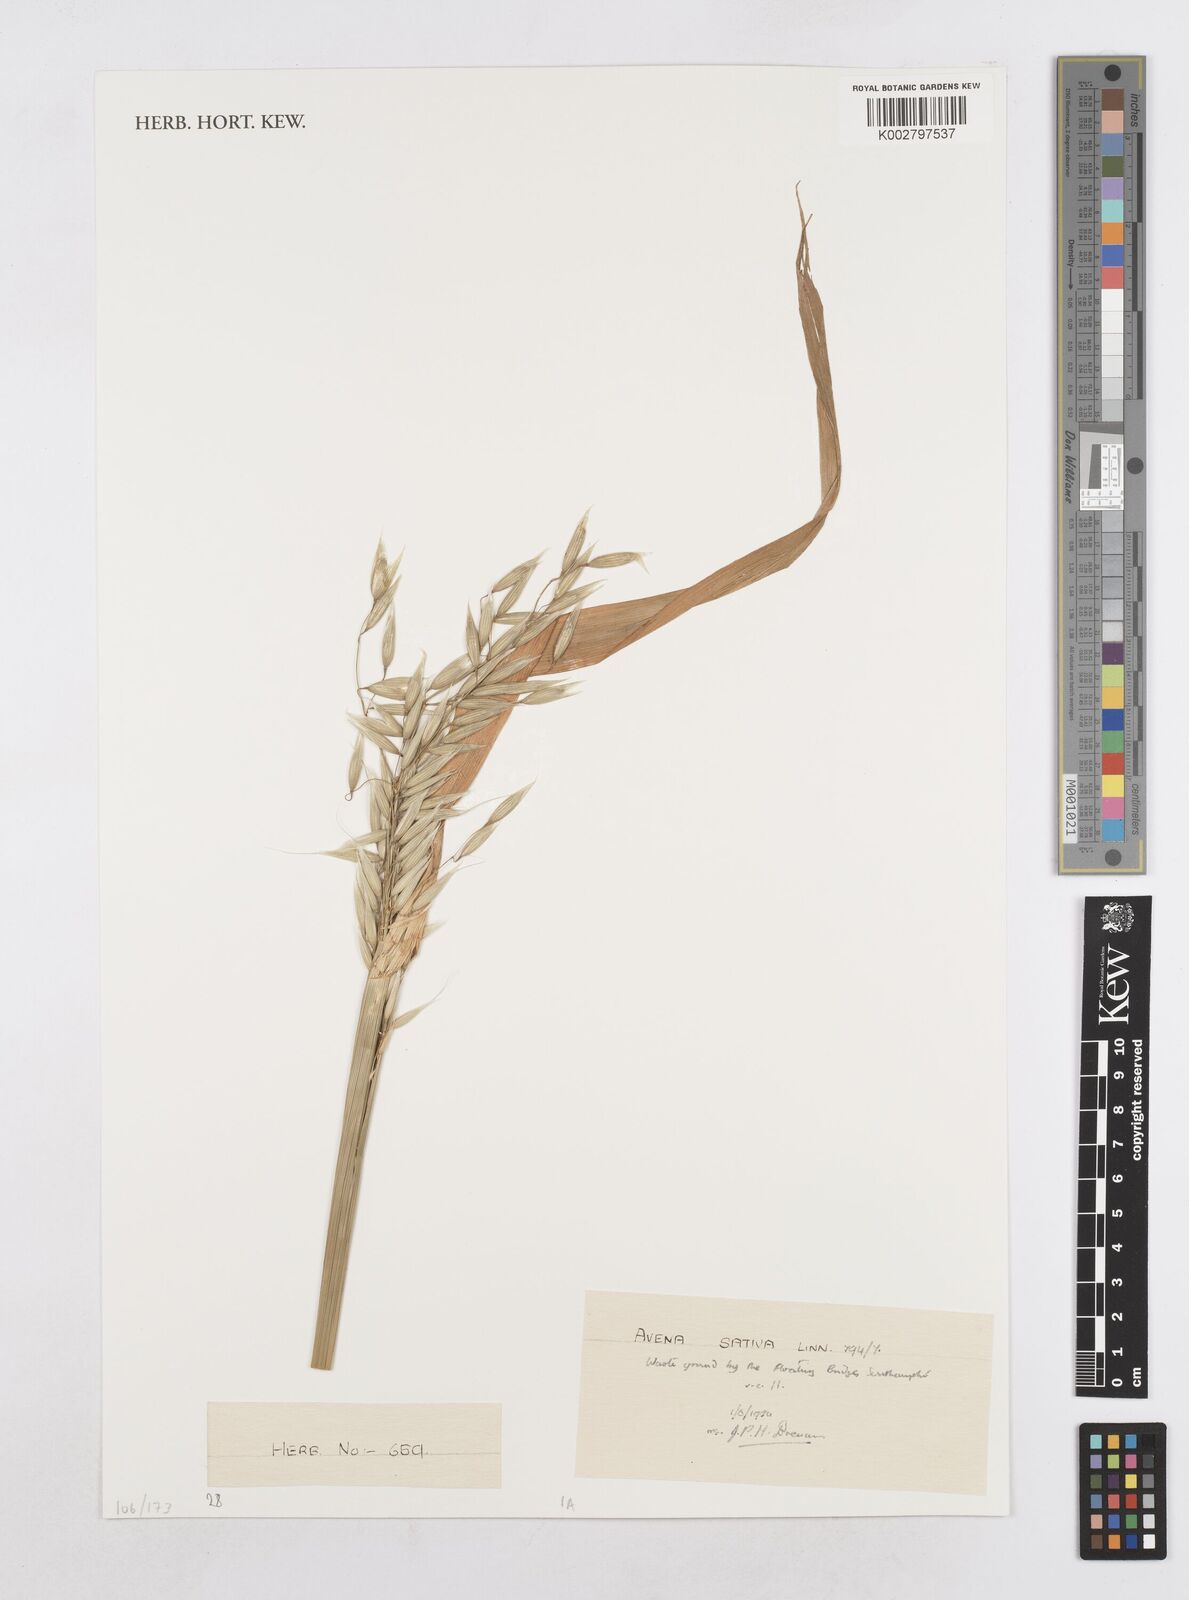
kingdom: Plantae
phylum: Tracheophyta
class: Liliopsida
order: Poales
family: Poaceae
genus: Avena
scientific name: Avena sativa
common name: Oat
